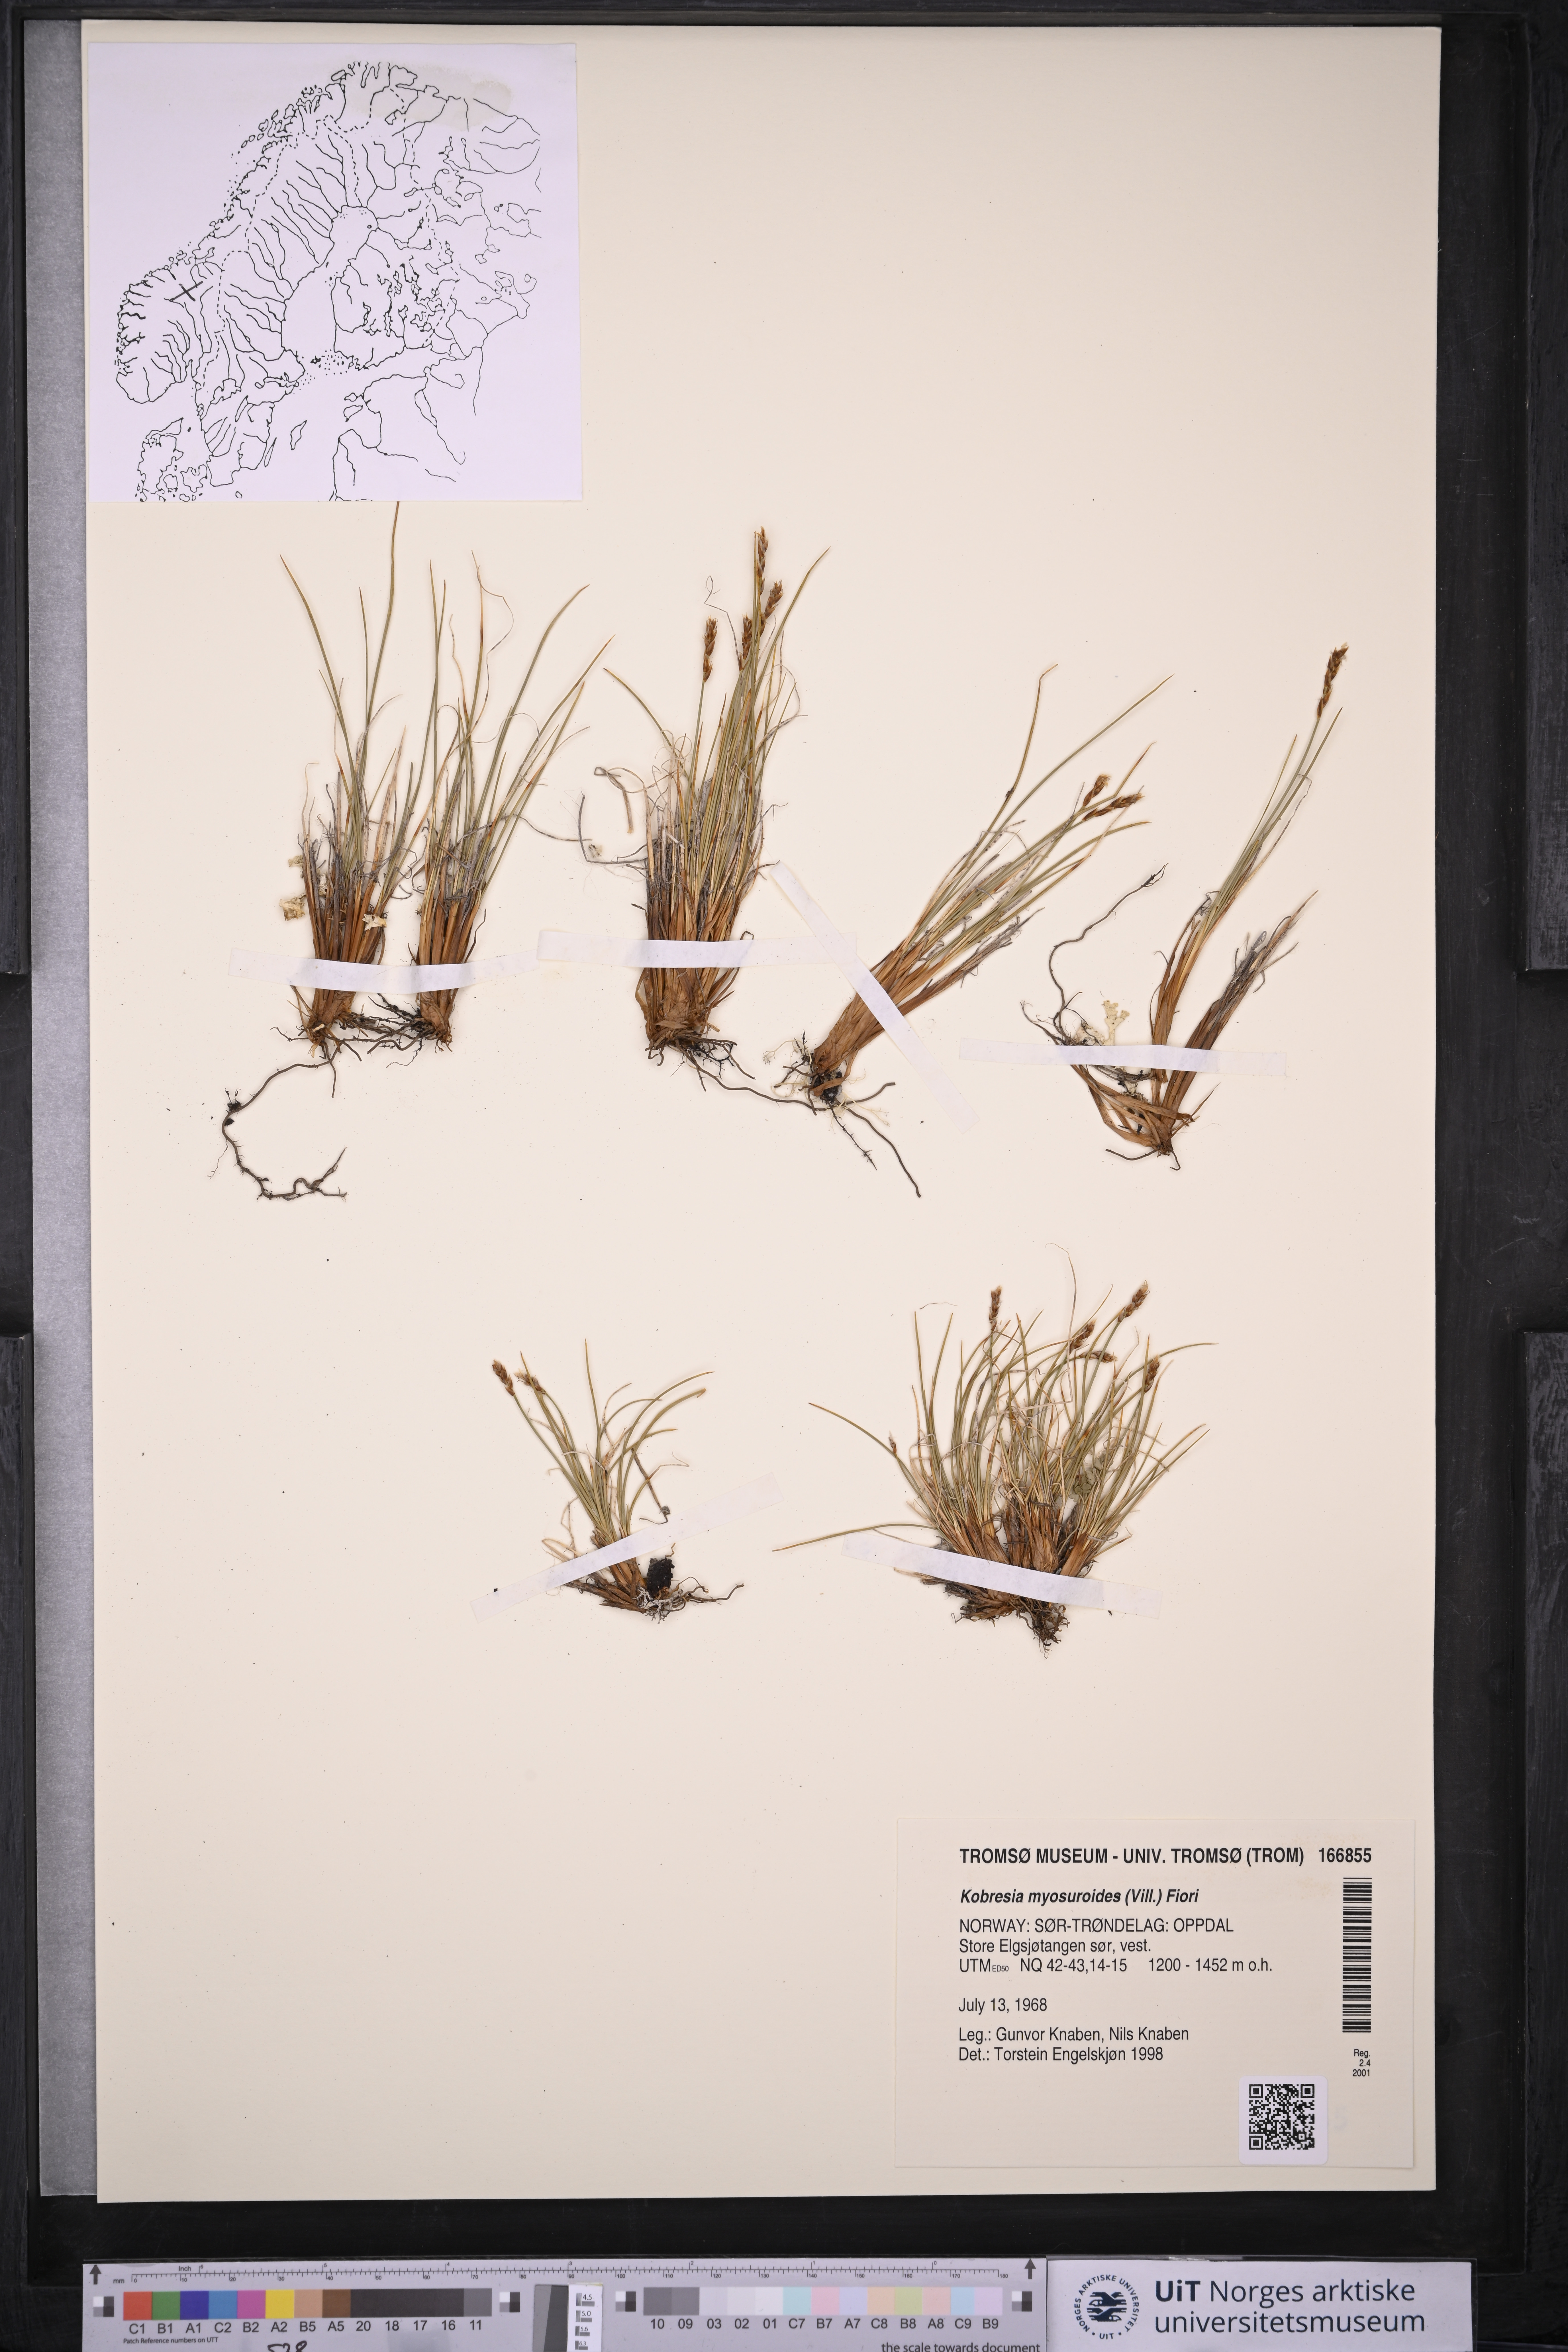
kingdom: Plantae
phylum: Tracheophyta
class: Liliopsida
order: Poales
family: Cyperaceae
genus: Carex
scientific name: Carex myosuroides
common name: Bellard's bog sedge
